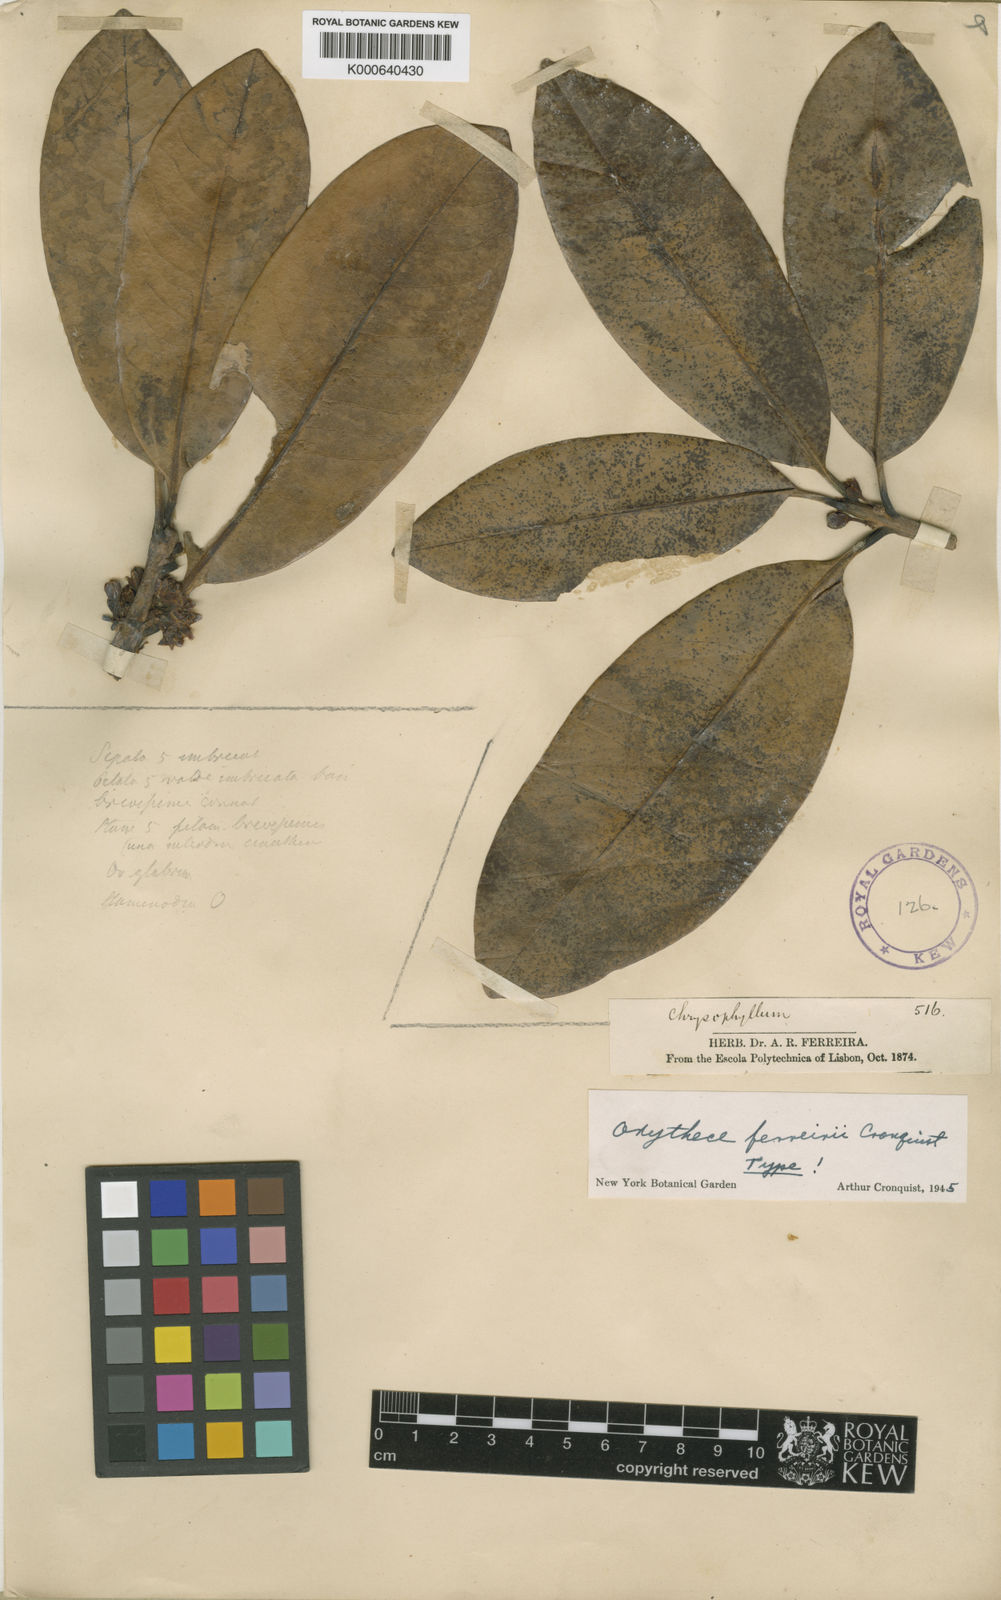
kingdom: Plantae
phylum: Tracheophyta
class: Magnoliopsida
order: Ericales
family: Sapotaceae
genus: Elaeoluma
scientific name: Elaeoluma
